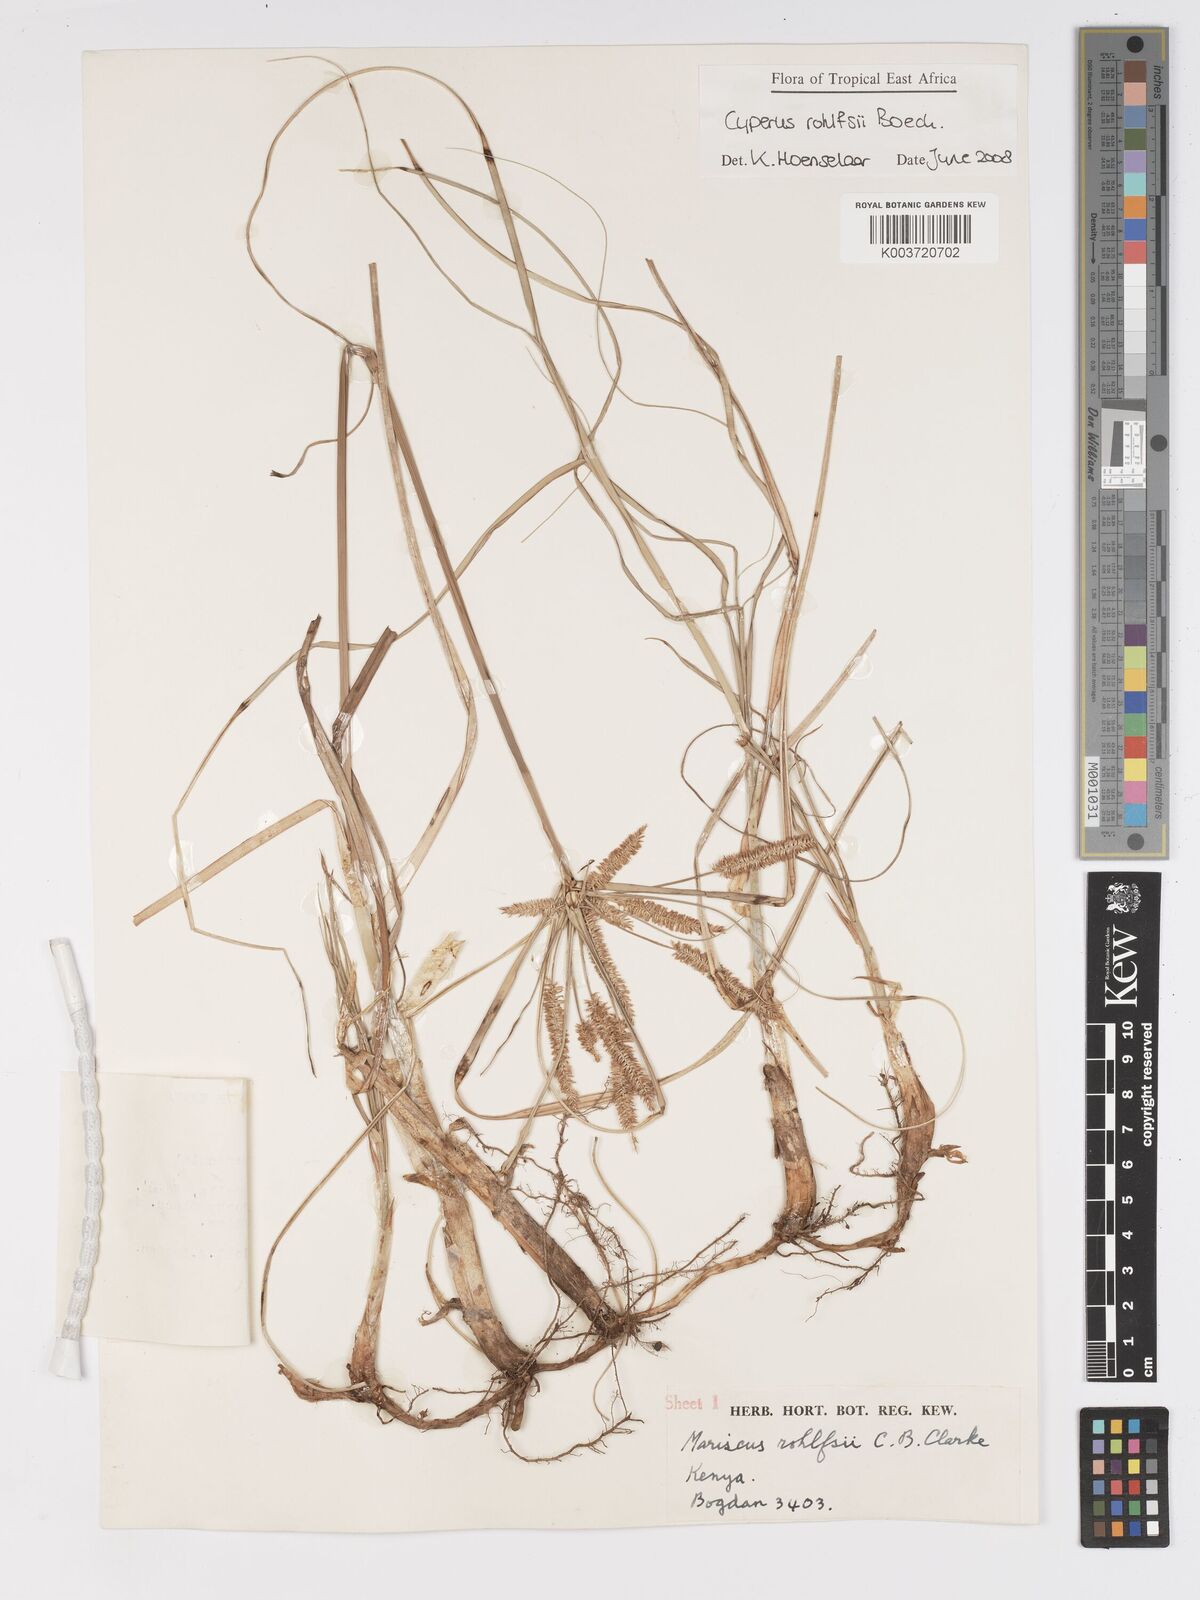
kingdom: Plantae
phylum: Tracheophyta
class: Liliopsida
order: Poales
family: Cyperaceae
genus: Cyperus
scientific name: Cyperus rohlfsii
